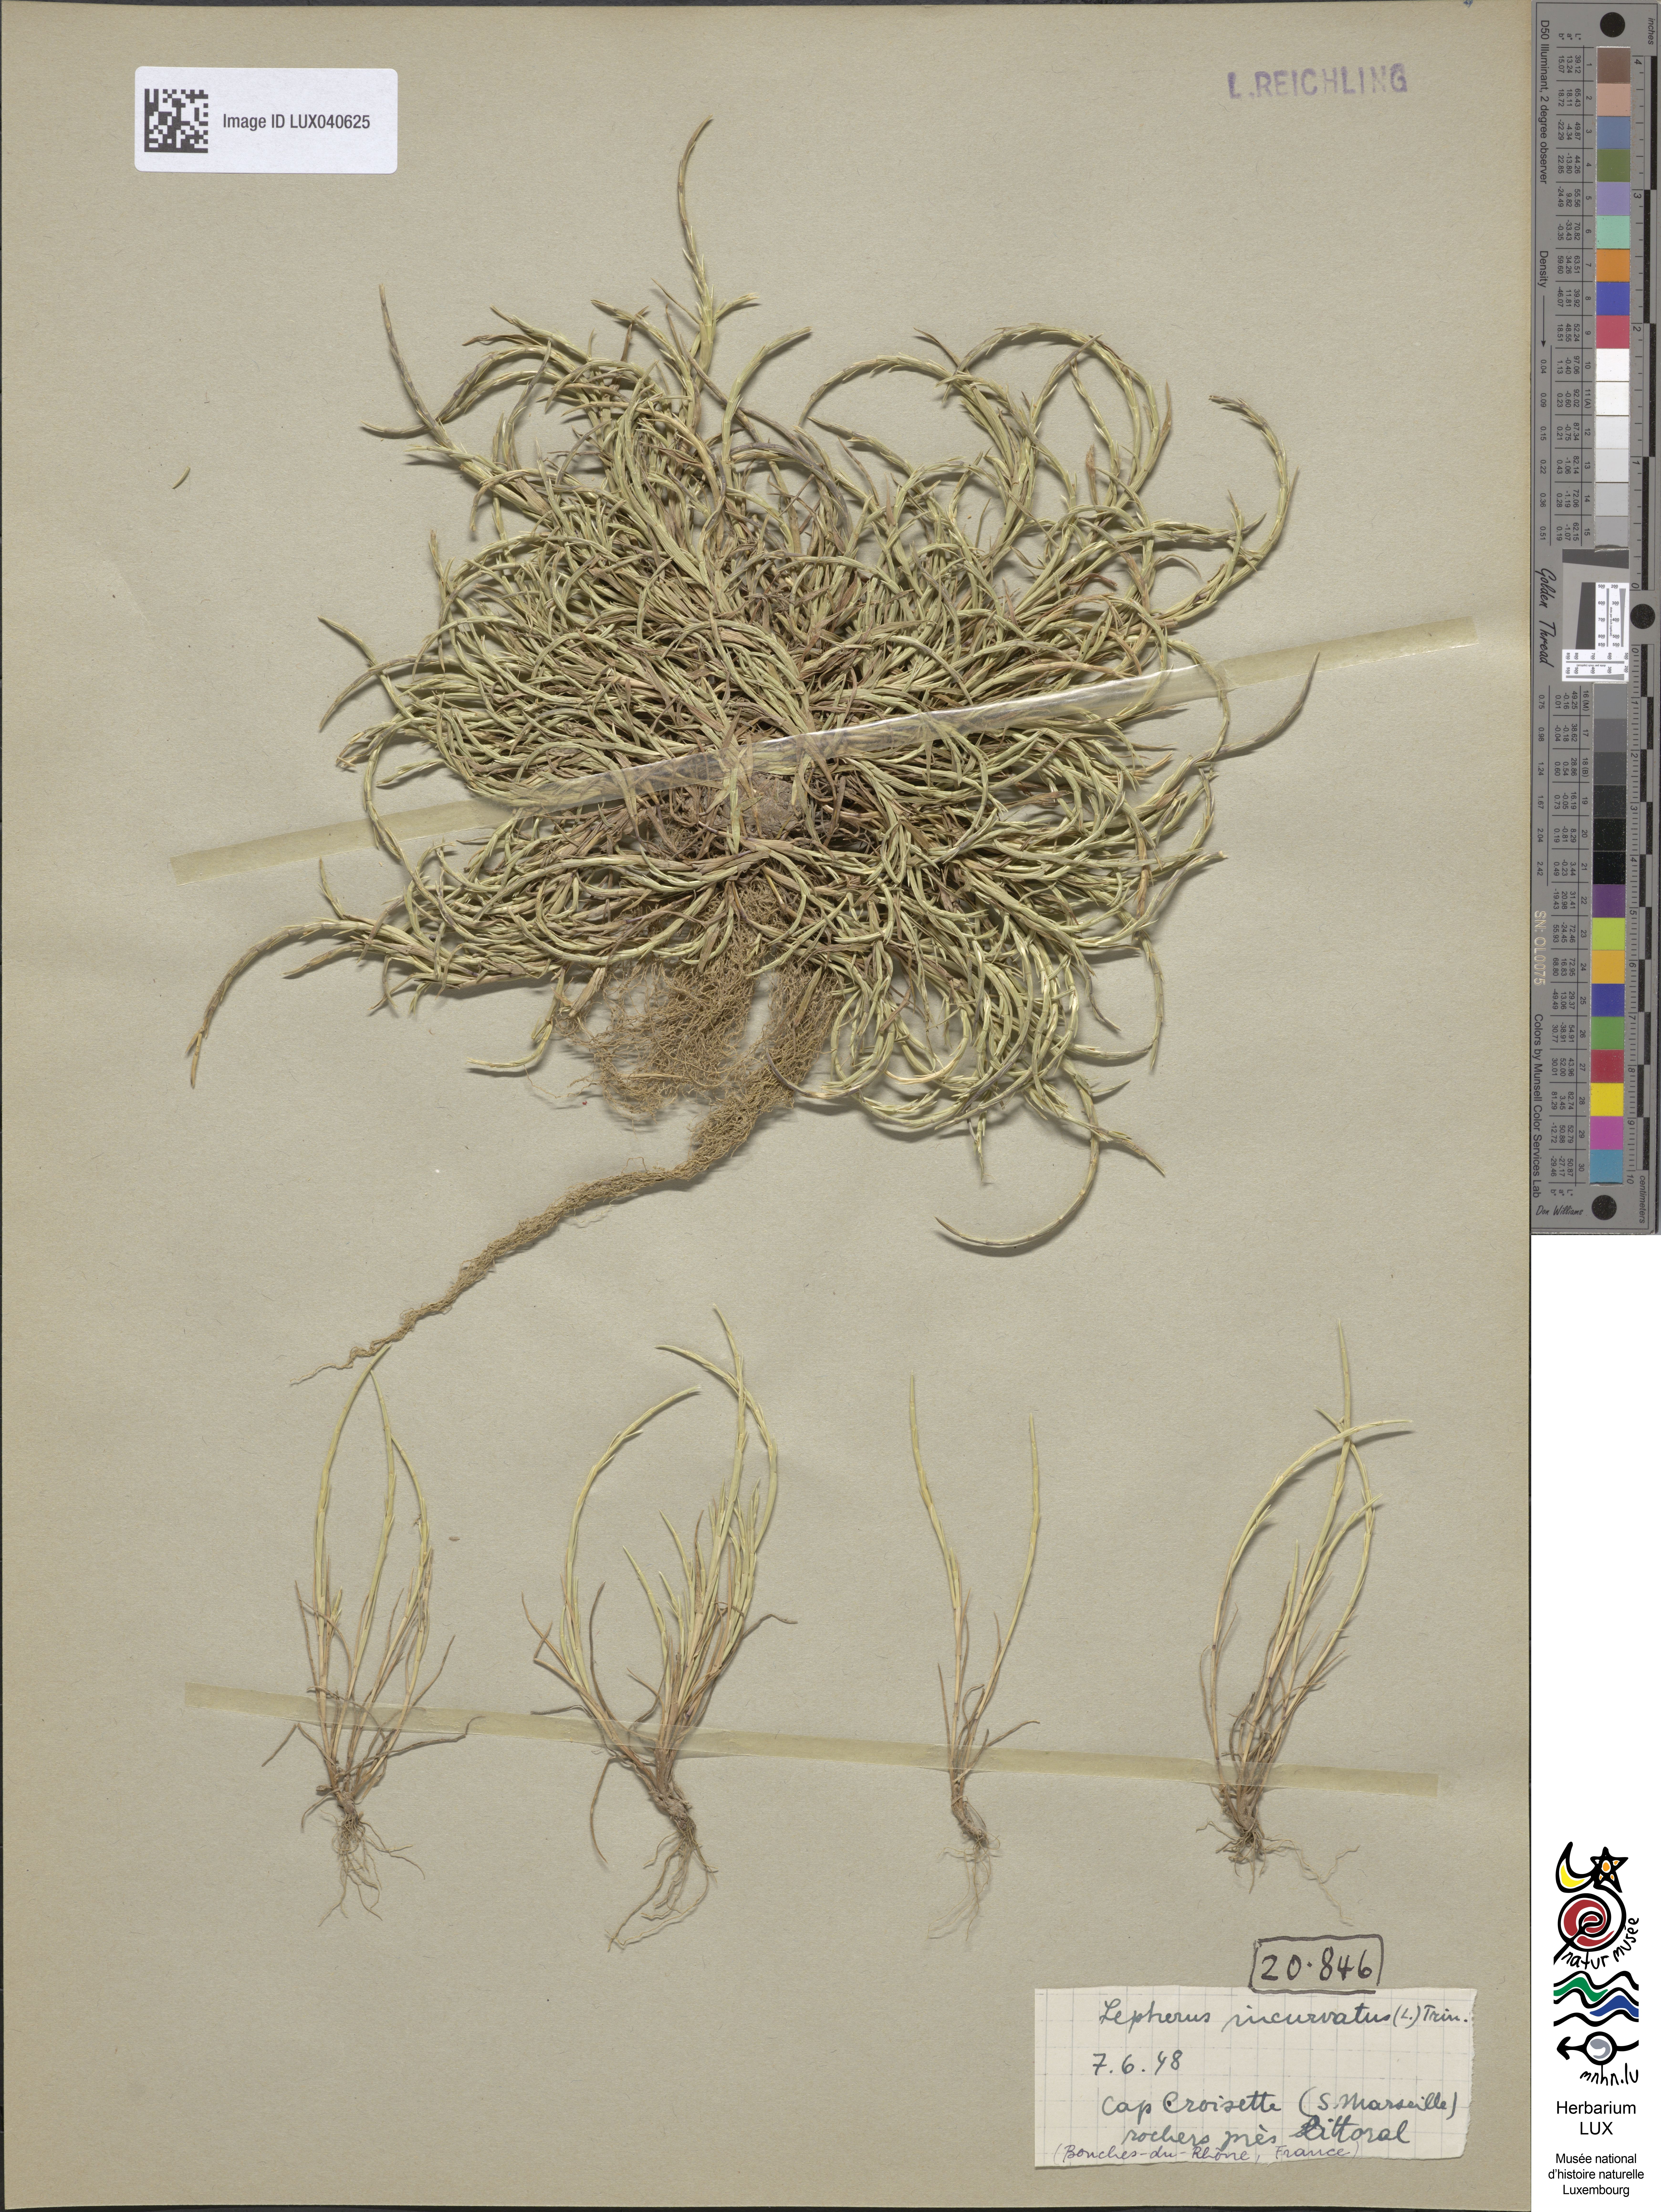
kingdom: Plantae
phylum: Tracheophyta
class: Liliopsida
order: Poales
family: Poaceae
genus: Parapholis
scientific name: Parapholis incurva
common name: Curved sicklegrass
